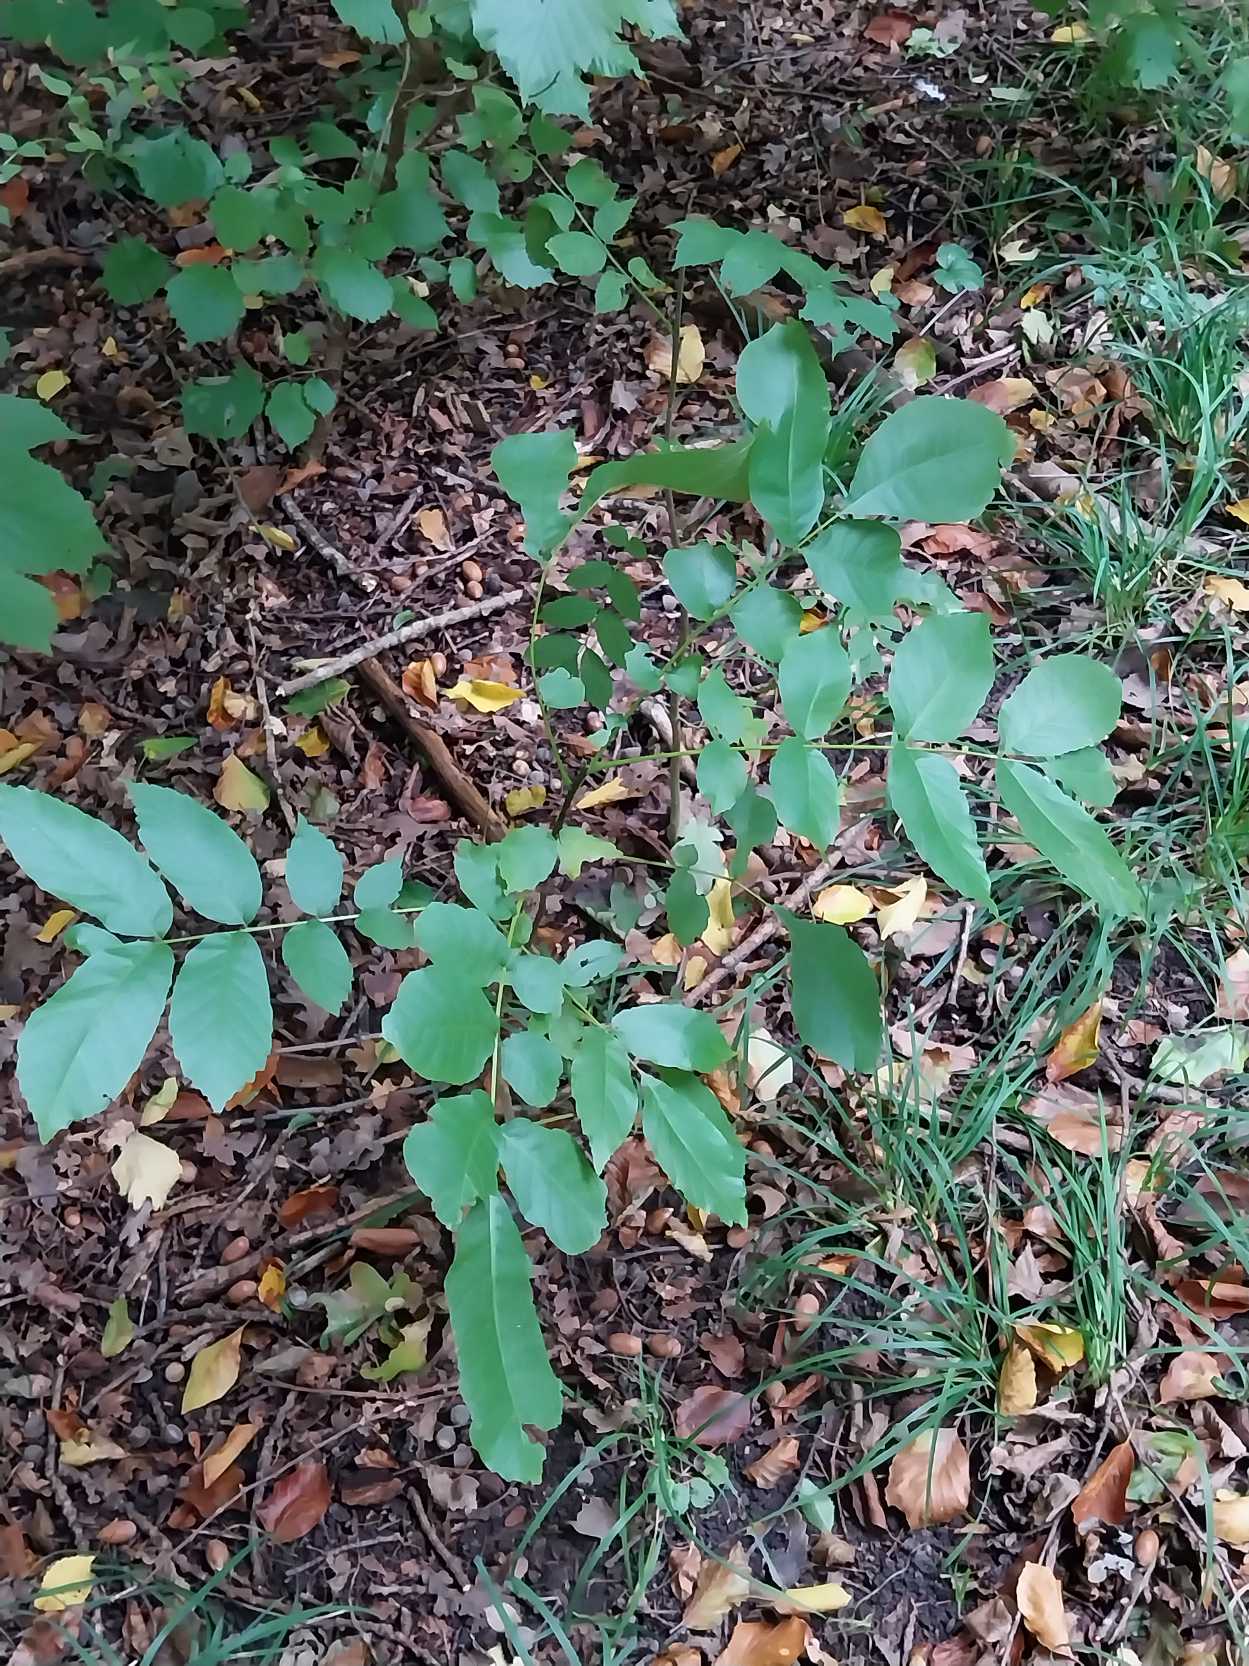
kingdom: Plantae
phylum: Tracheophyta
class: Magnoliopsida
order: Fagales
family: Juglandaceae
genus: Juglans
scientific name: Juglans regia
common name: Almindelig valnød
